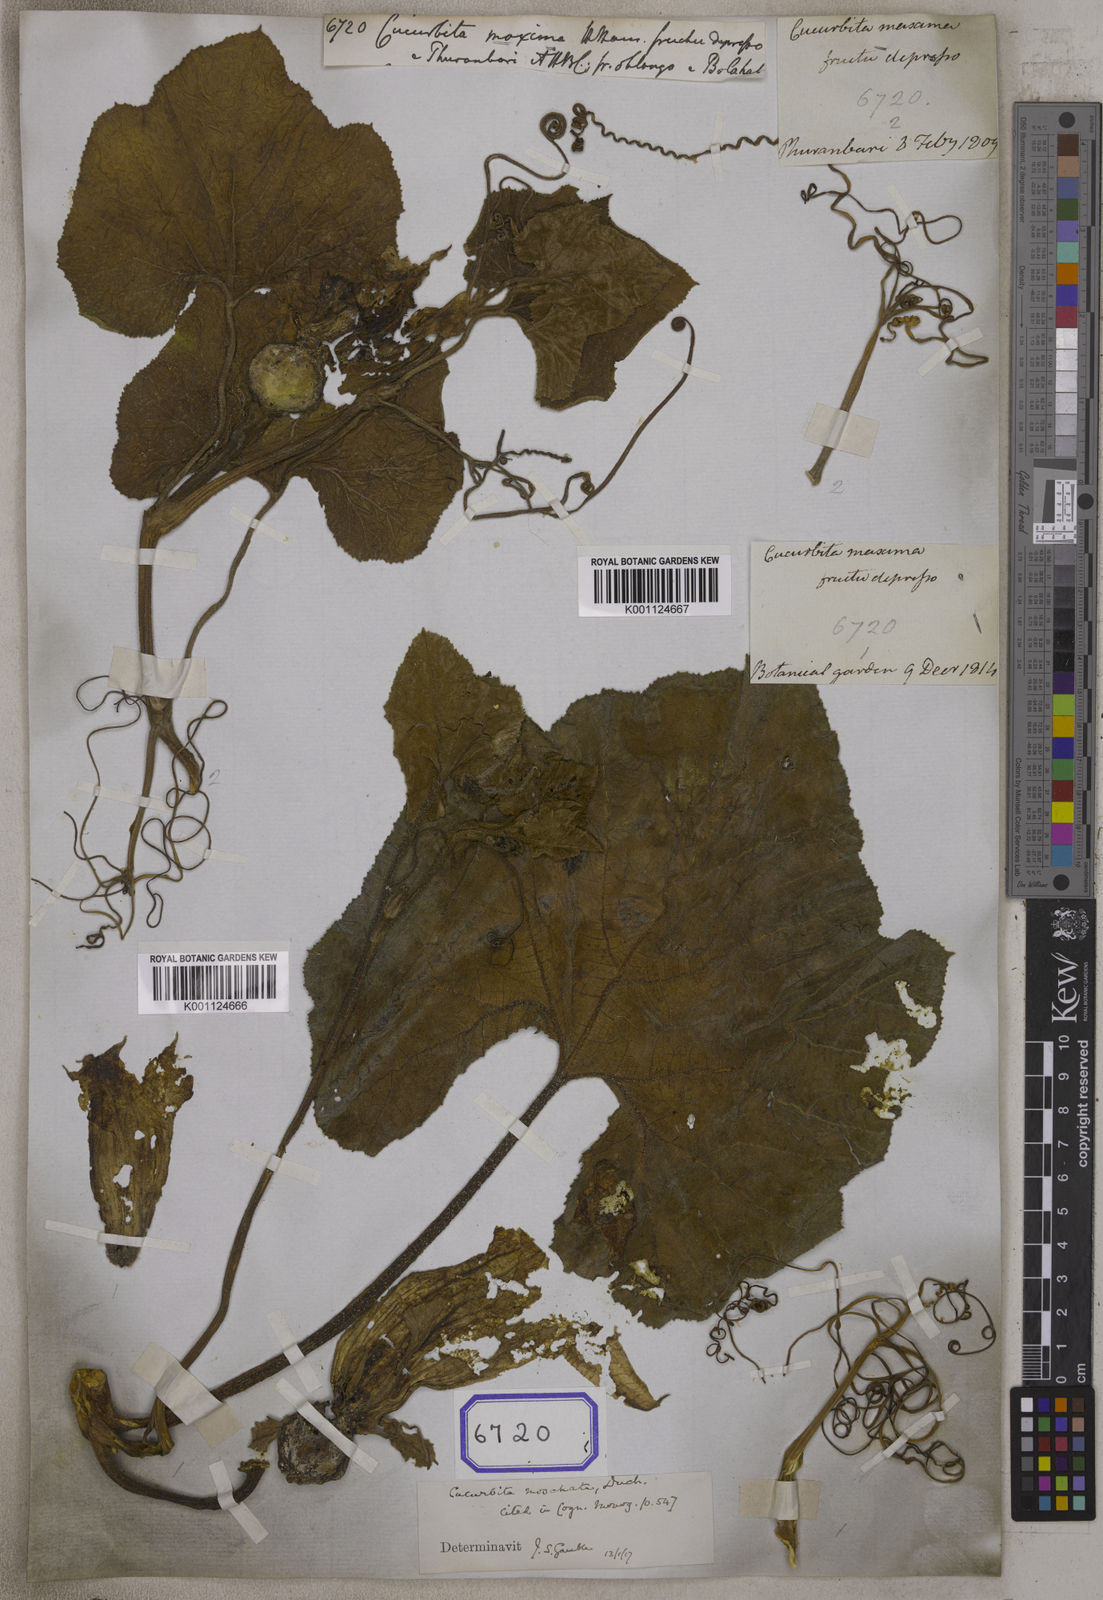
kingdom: Plantae
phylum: Tracheophyta
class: Magnoliopsida
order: Cucurbitales
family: Cucurbitaceae
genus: Cucurbita
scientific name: Cucurbita
